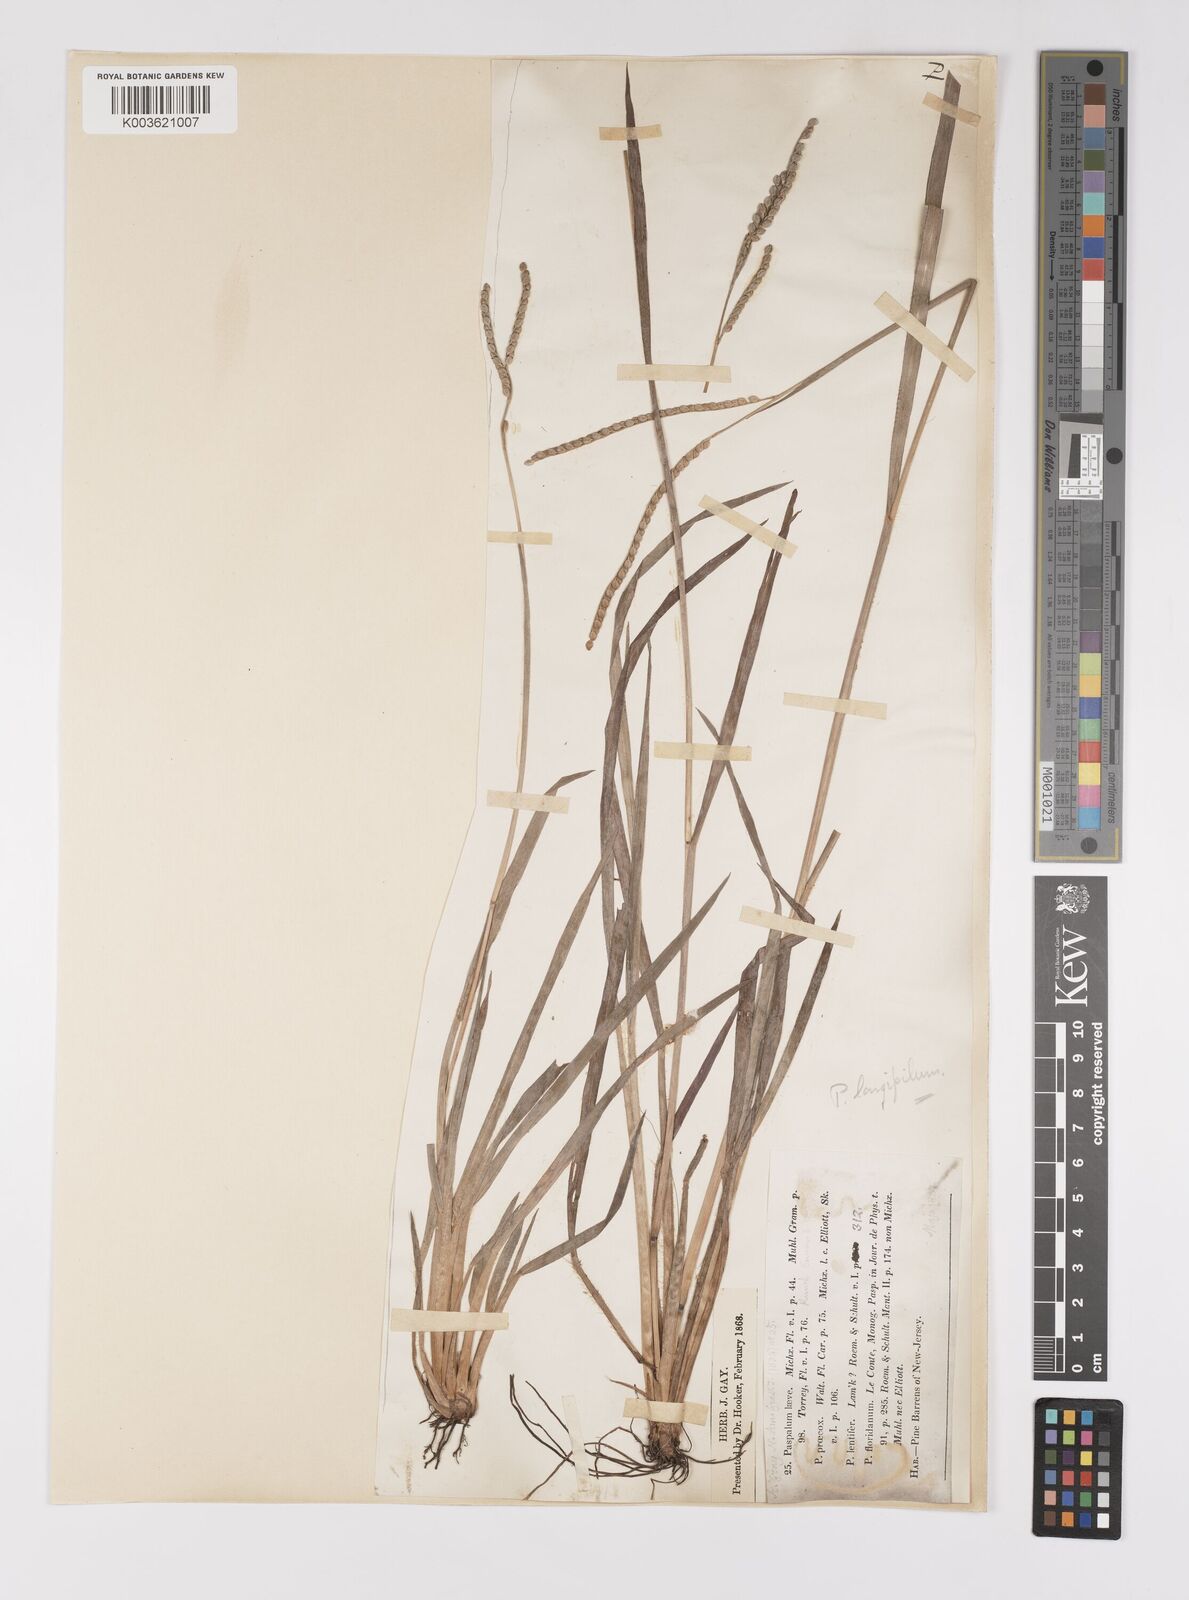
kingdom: Plantae
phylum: Tracheophyta
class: Liliopsida
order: Poales
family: Poaceae
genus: Paspalum
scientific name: Paspalum laeve
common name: Field paspalum
